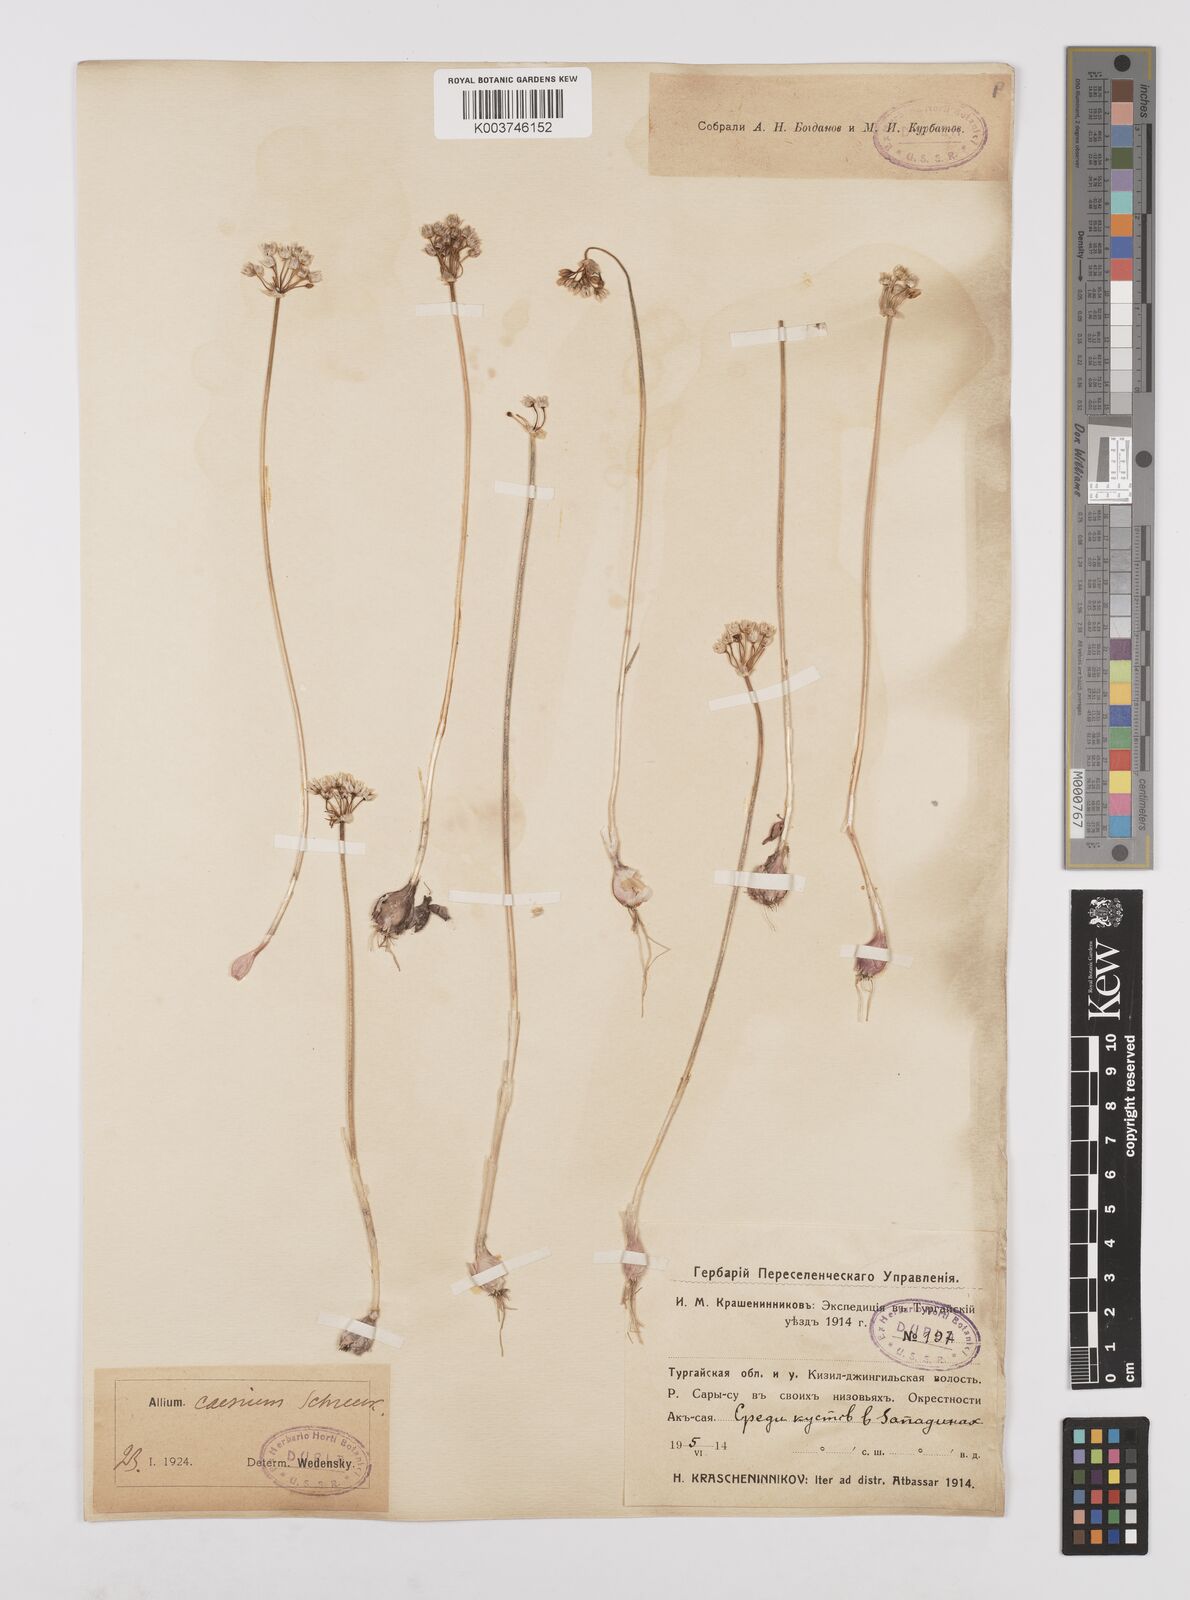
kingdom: Plantae
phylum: Tracheophyta
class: Liliopsida
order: Asparagales
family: Amaryllidaceae
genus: Allium
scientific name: Allium caesium
